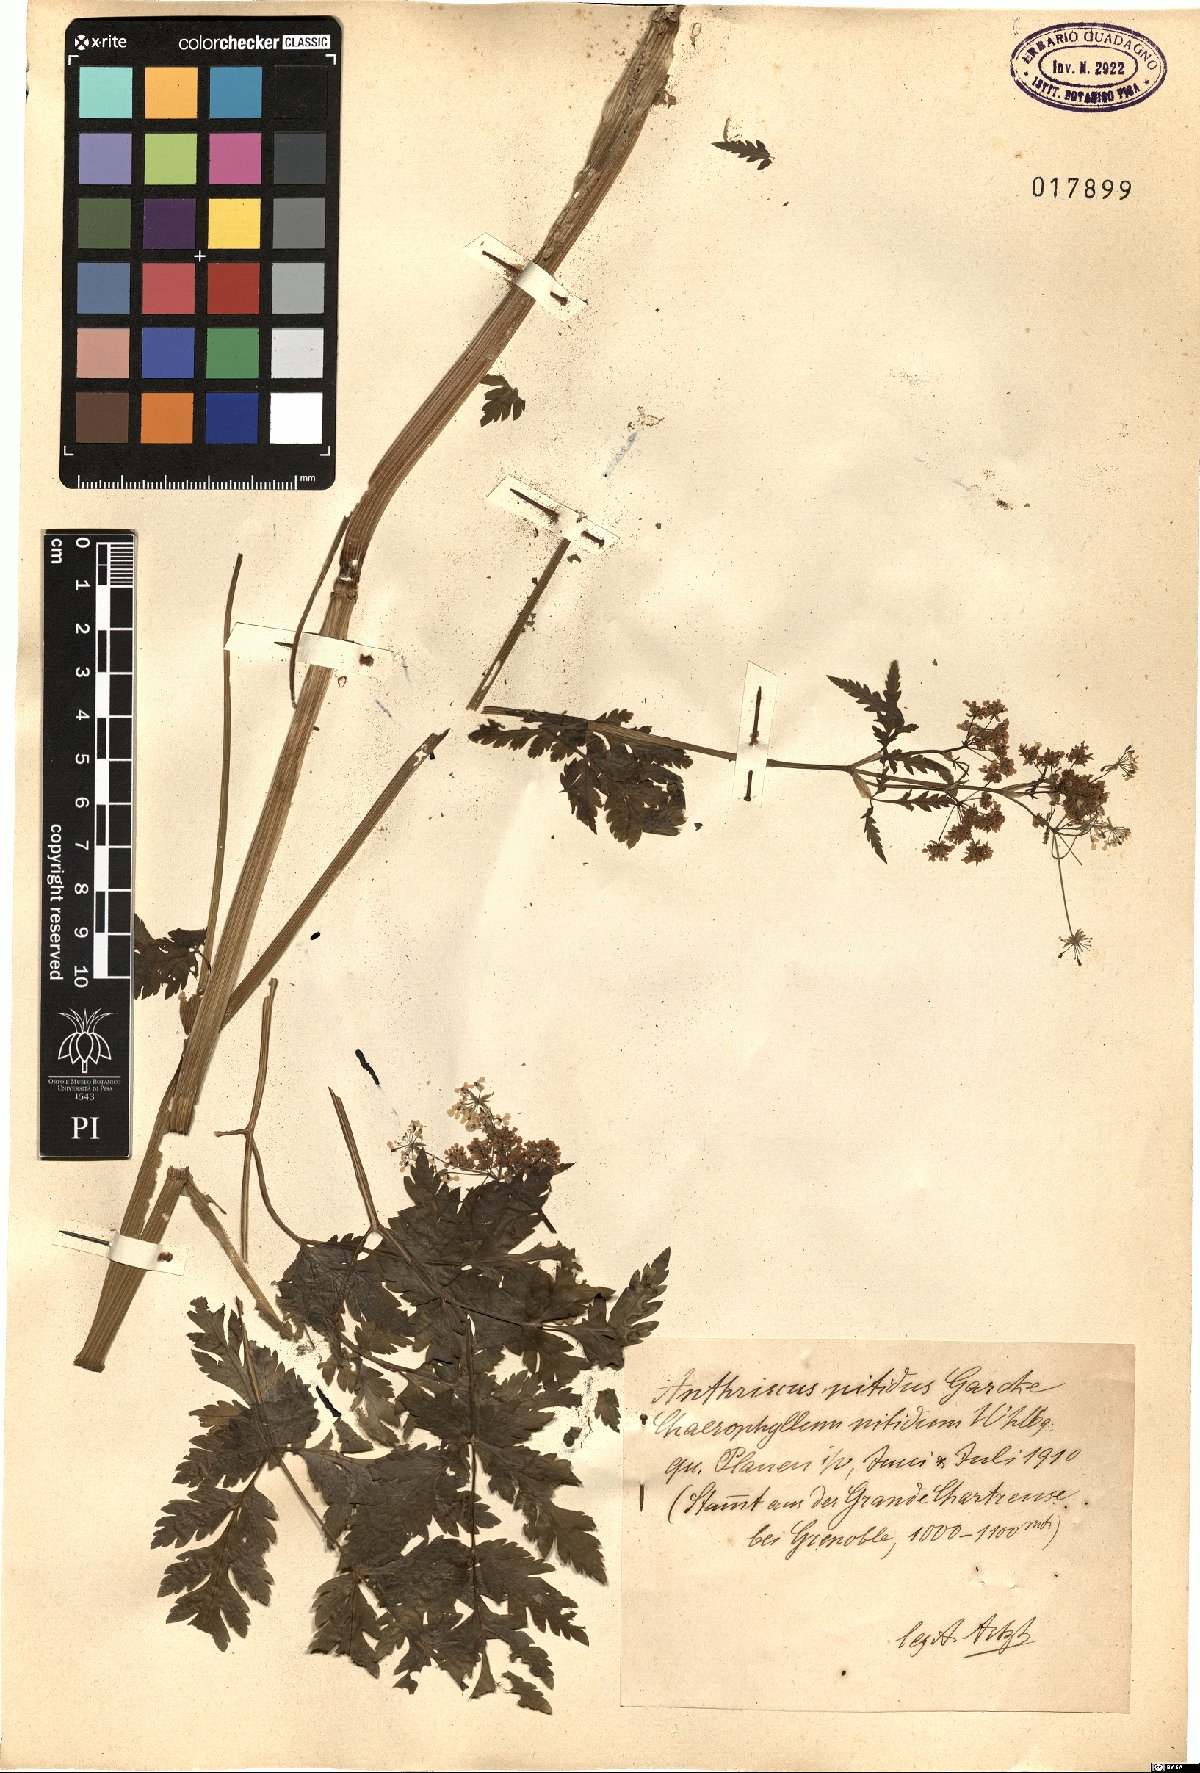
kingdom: Plantae
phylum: Tracheophyta
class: Magnoliopsida
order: Apiales
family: Apiaceae
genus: Anthriscus
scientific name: Anthriscus nitida
